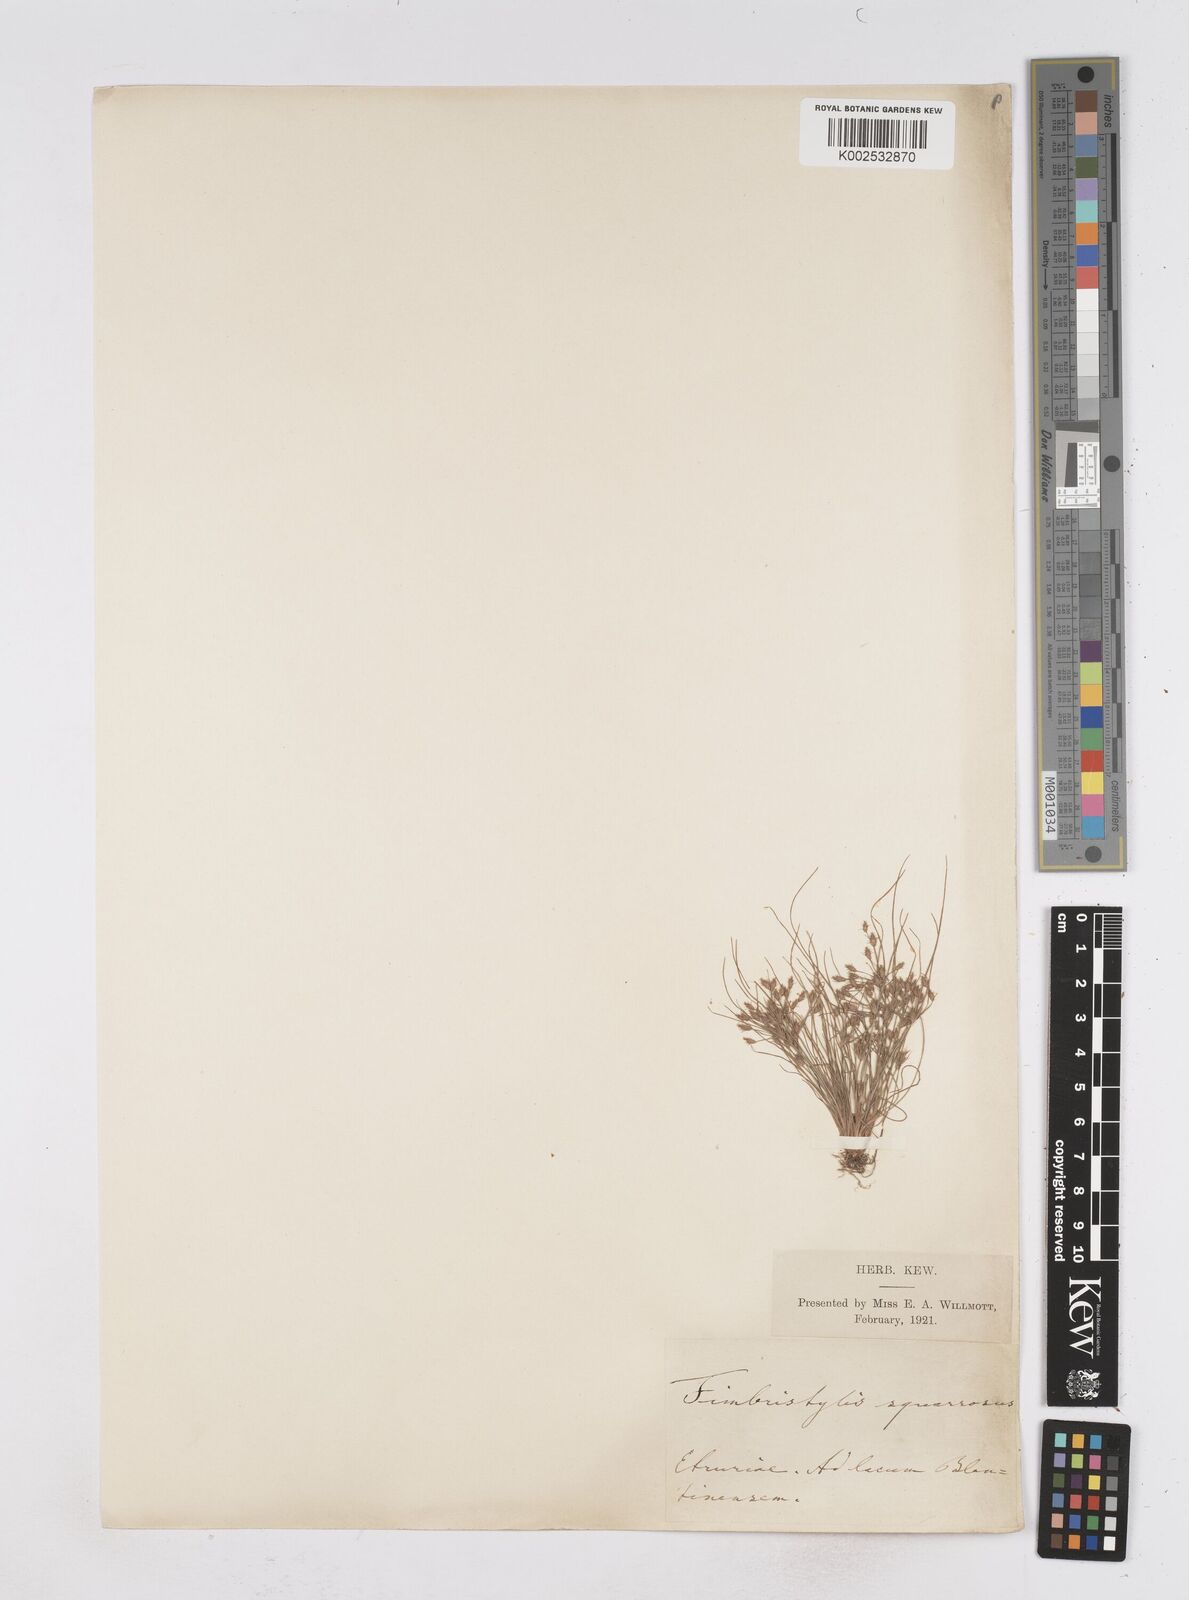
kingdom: Plantae
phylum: Tracheophyta
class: Liliopsida
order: Poales
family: Cyperaceae
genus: Fimbristylis
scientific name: Fimbristylis squarrosa
